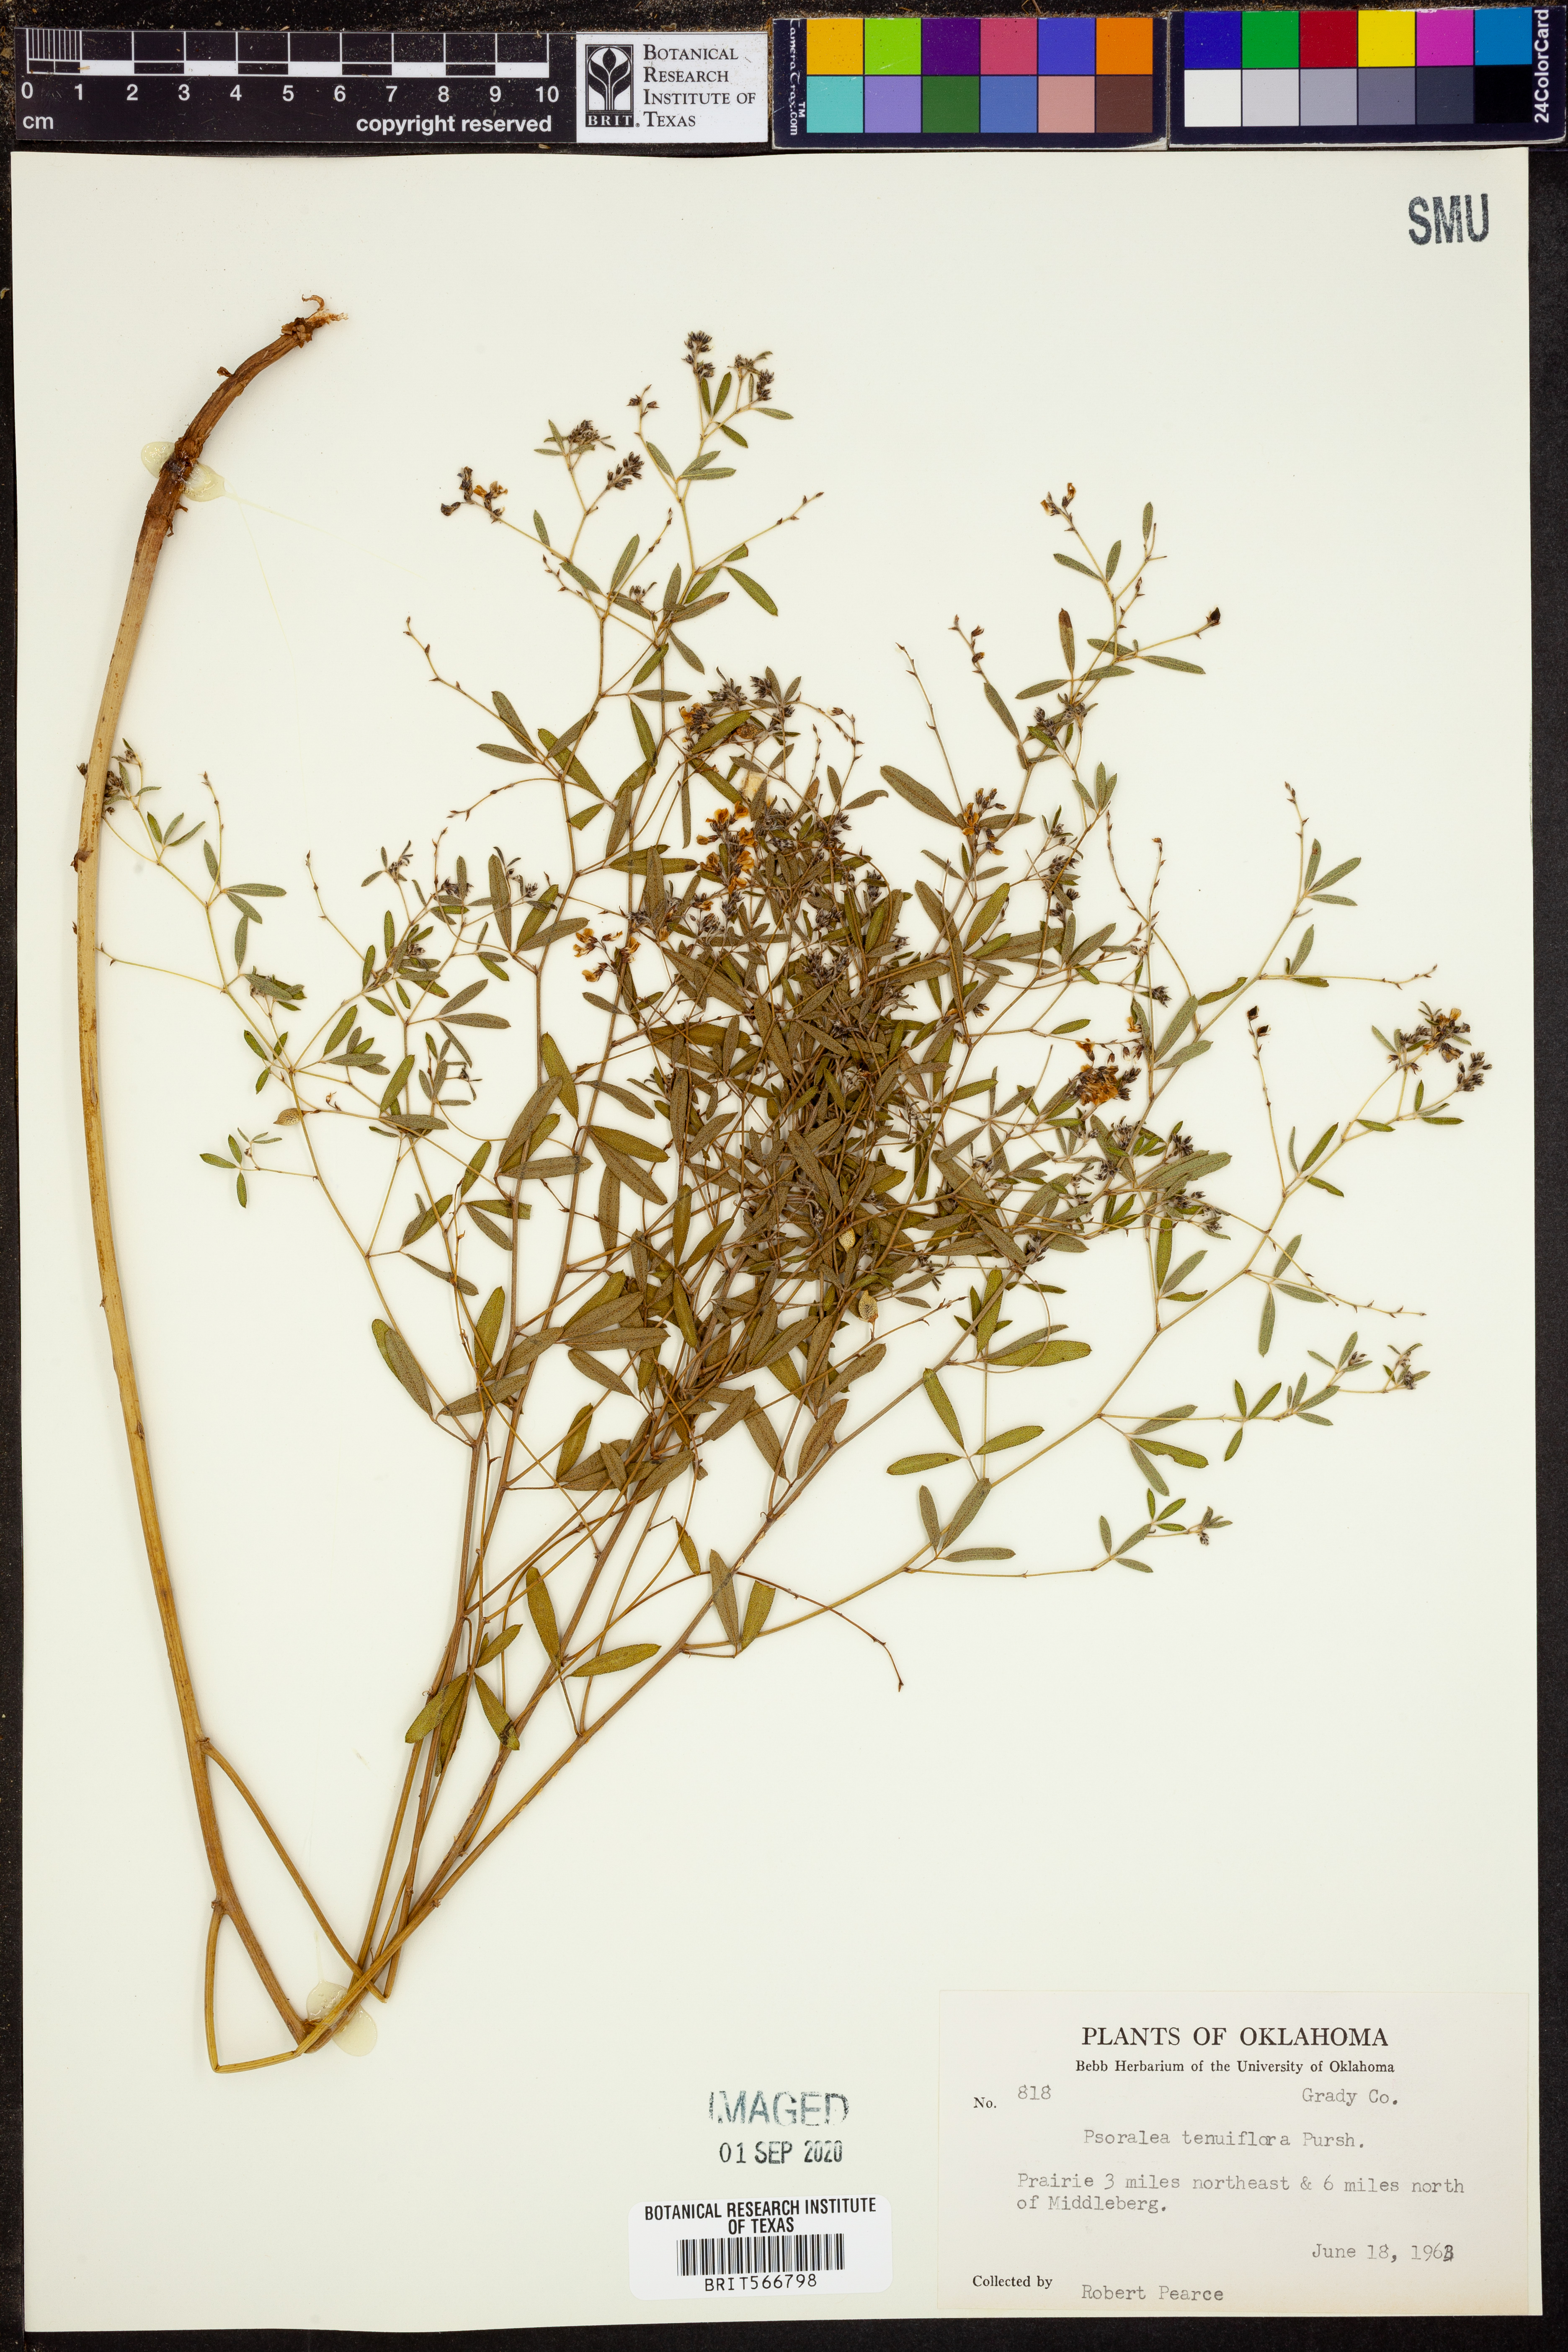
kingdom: Plantae
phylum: Tracheophyta
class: Magnoliopsida
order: Fabales
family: Fabaceae
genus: Pediomelum
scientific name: Pediomelum tenuiflorum
